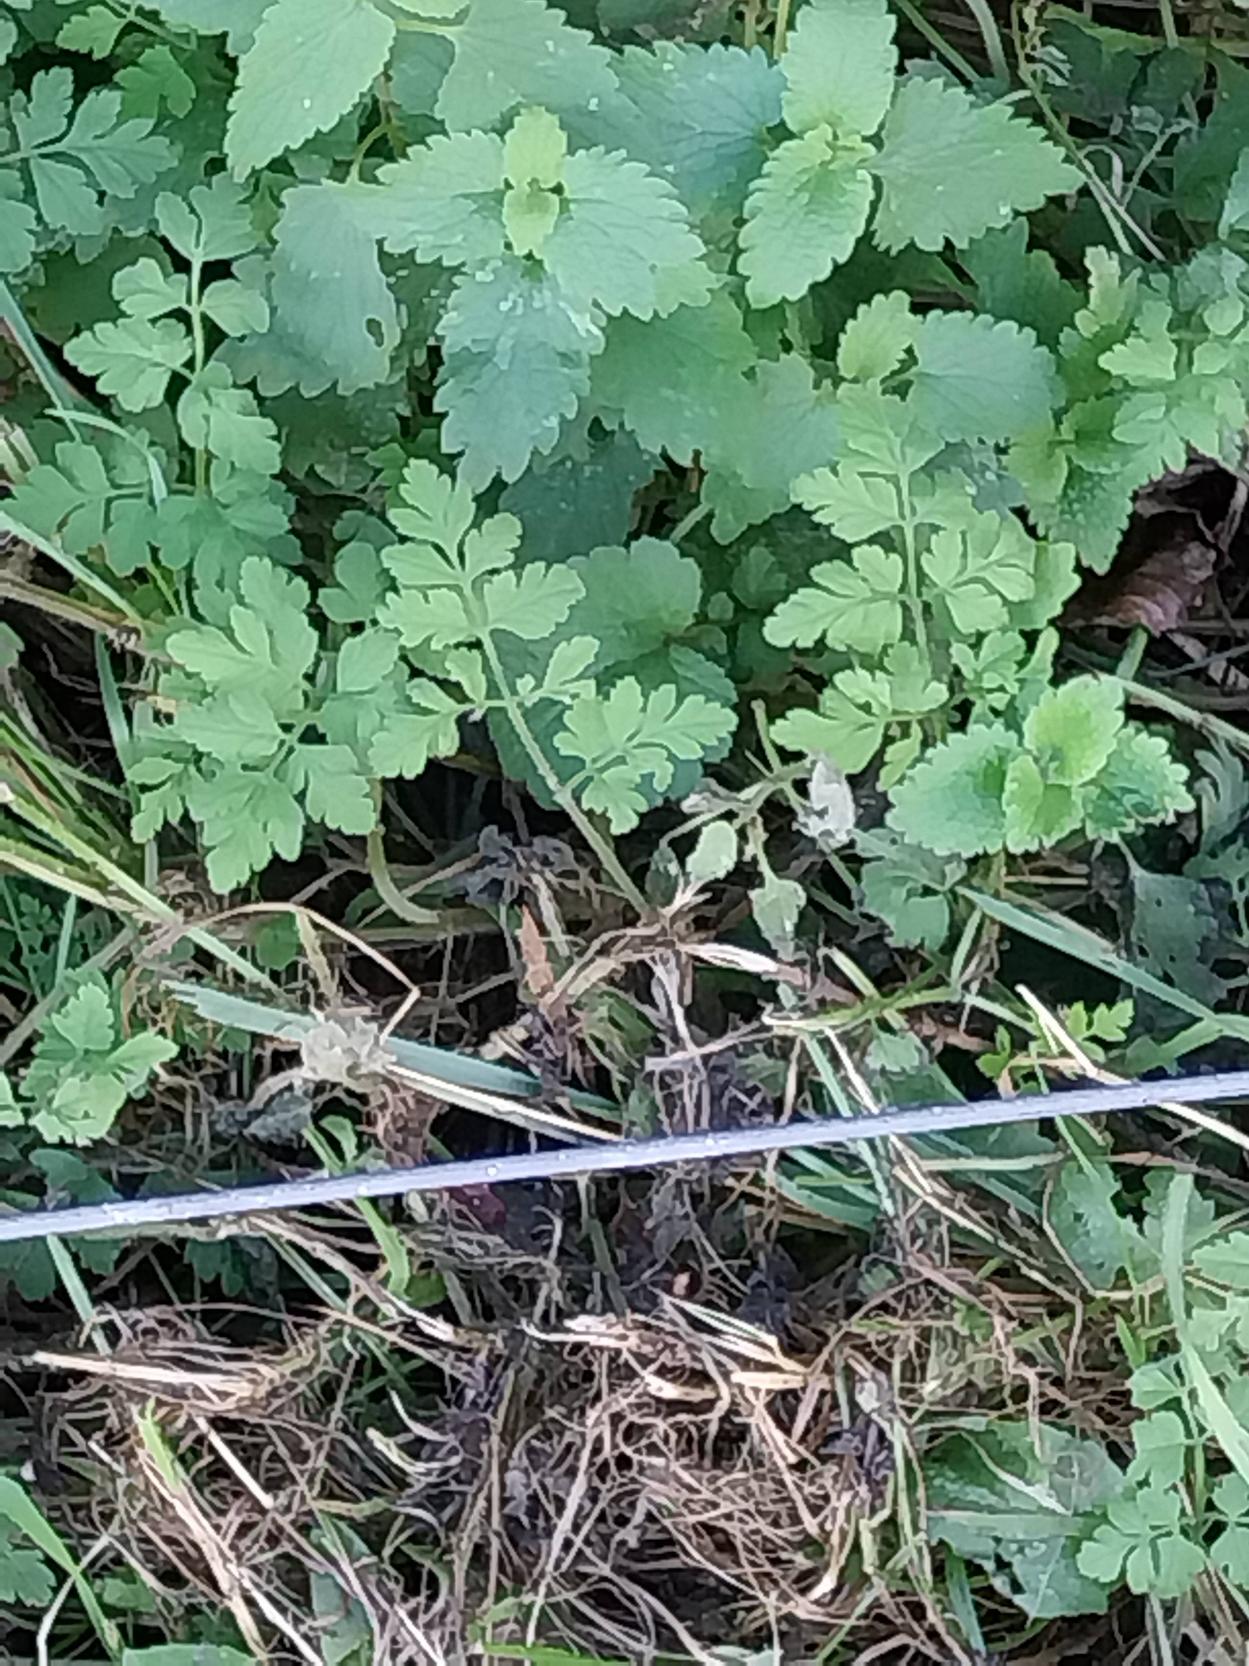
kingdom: Plantae
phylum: Tracheophyta
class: Magnoliopsida
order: Apiales
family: Apiaceae
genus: Chaerophyllum
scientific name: Chaerophyllum temulum
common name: Almindelig hulsvøb
